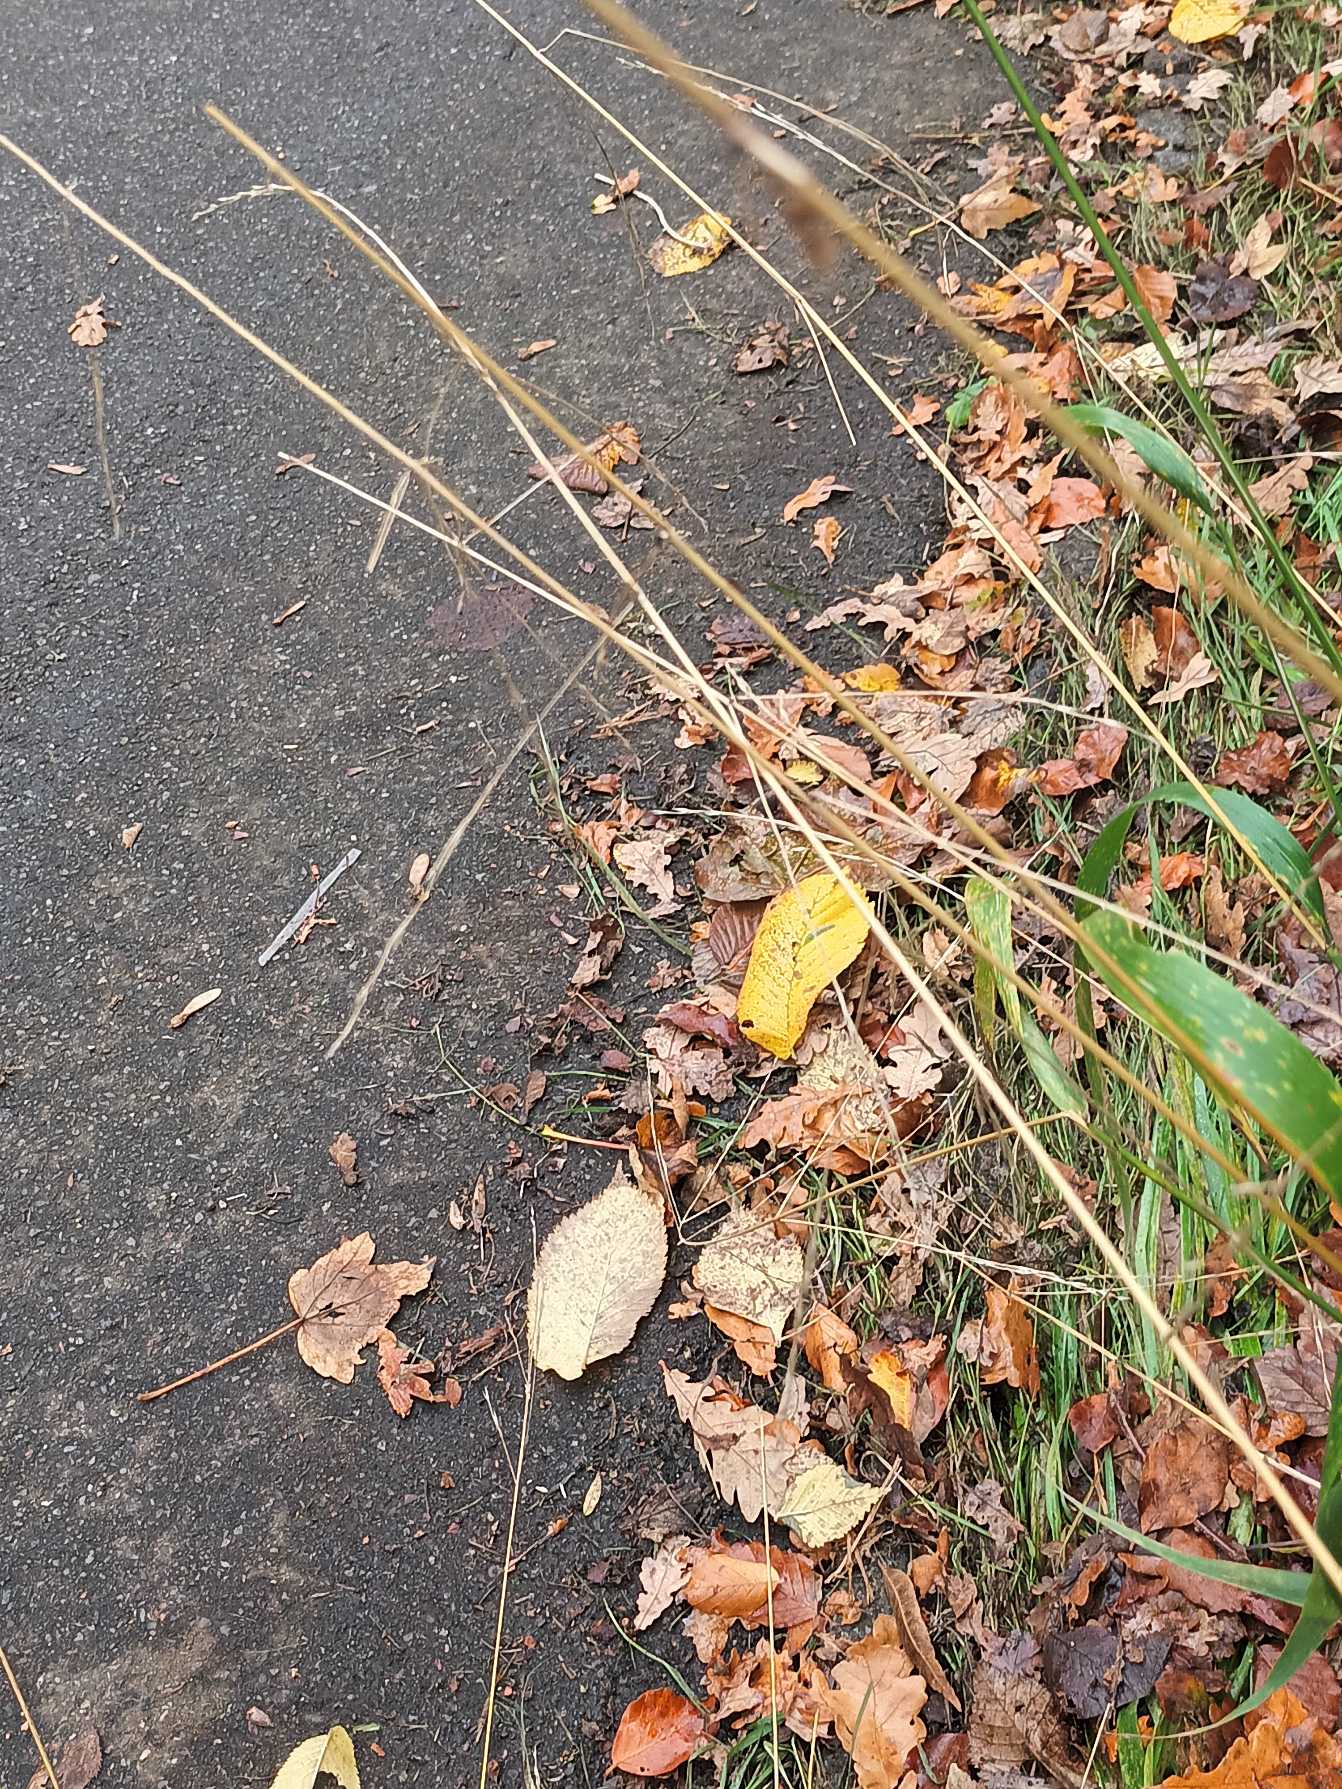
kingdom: Plantae
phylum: Tracheophyta
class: Liliopsida
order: Poales
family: Poaceae
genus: Lolium
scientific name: Lolium giganteum
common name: Kæmpe-svingel
